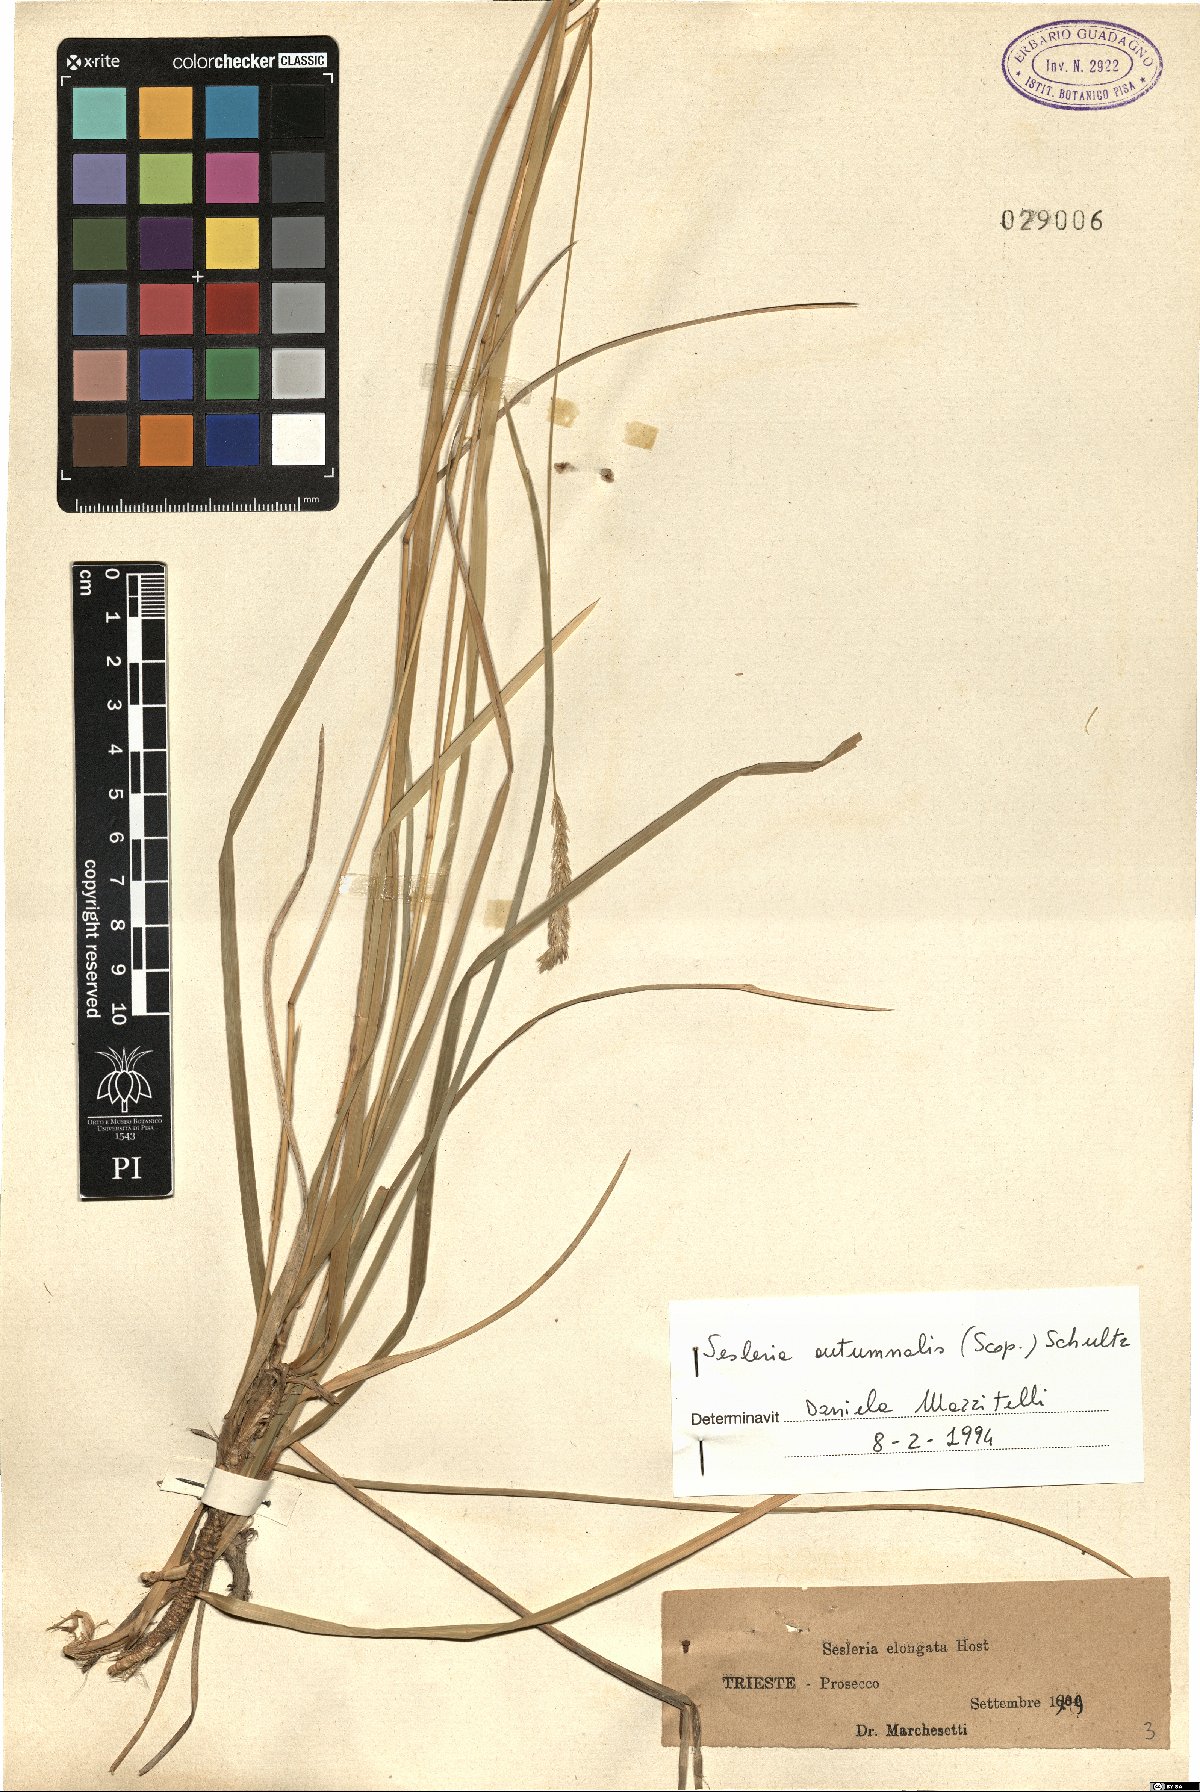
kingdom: Plantae
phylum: Tracheophyta
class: Liliopsida
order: Poales
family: Poaceae
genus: Sesleria
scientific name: Sesleria autumnalis
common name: Autumn moor grass
